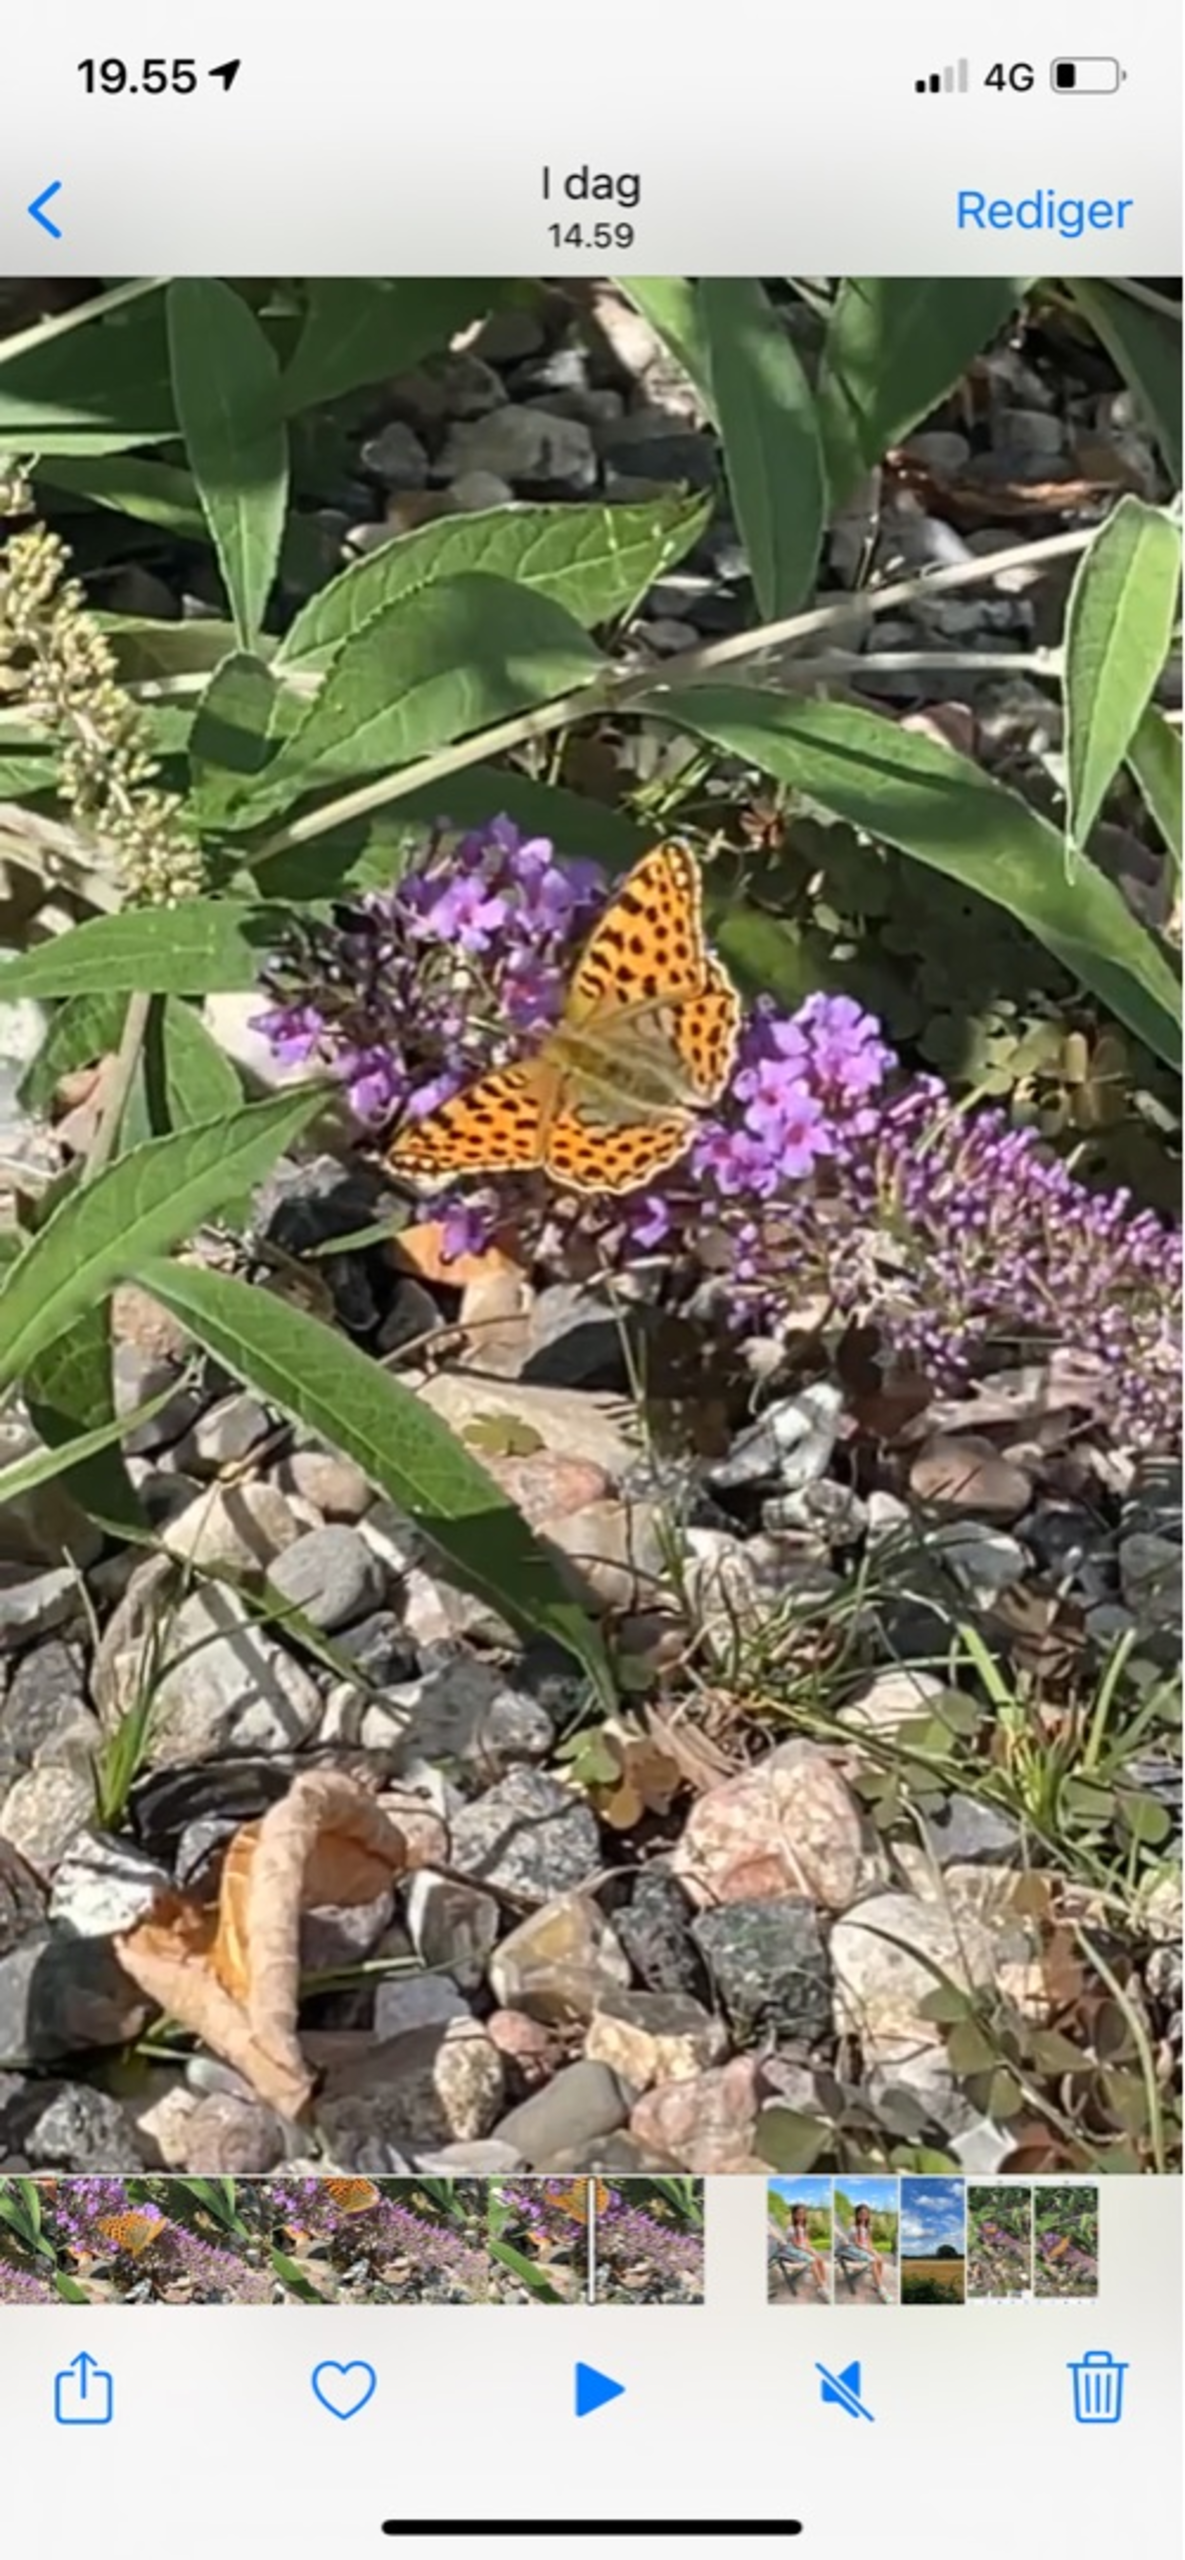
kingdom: Animalia
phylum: Arthropoda
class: Insecta
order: Lepidoptera
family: Nymphalidae
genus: Issoria
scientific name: Issoria lathonia
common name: Storplettet perlemorsommerfugl
